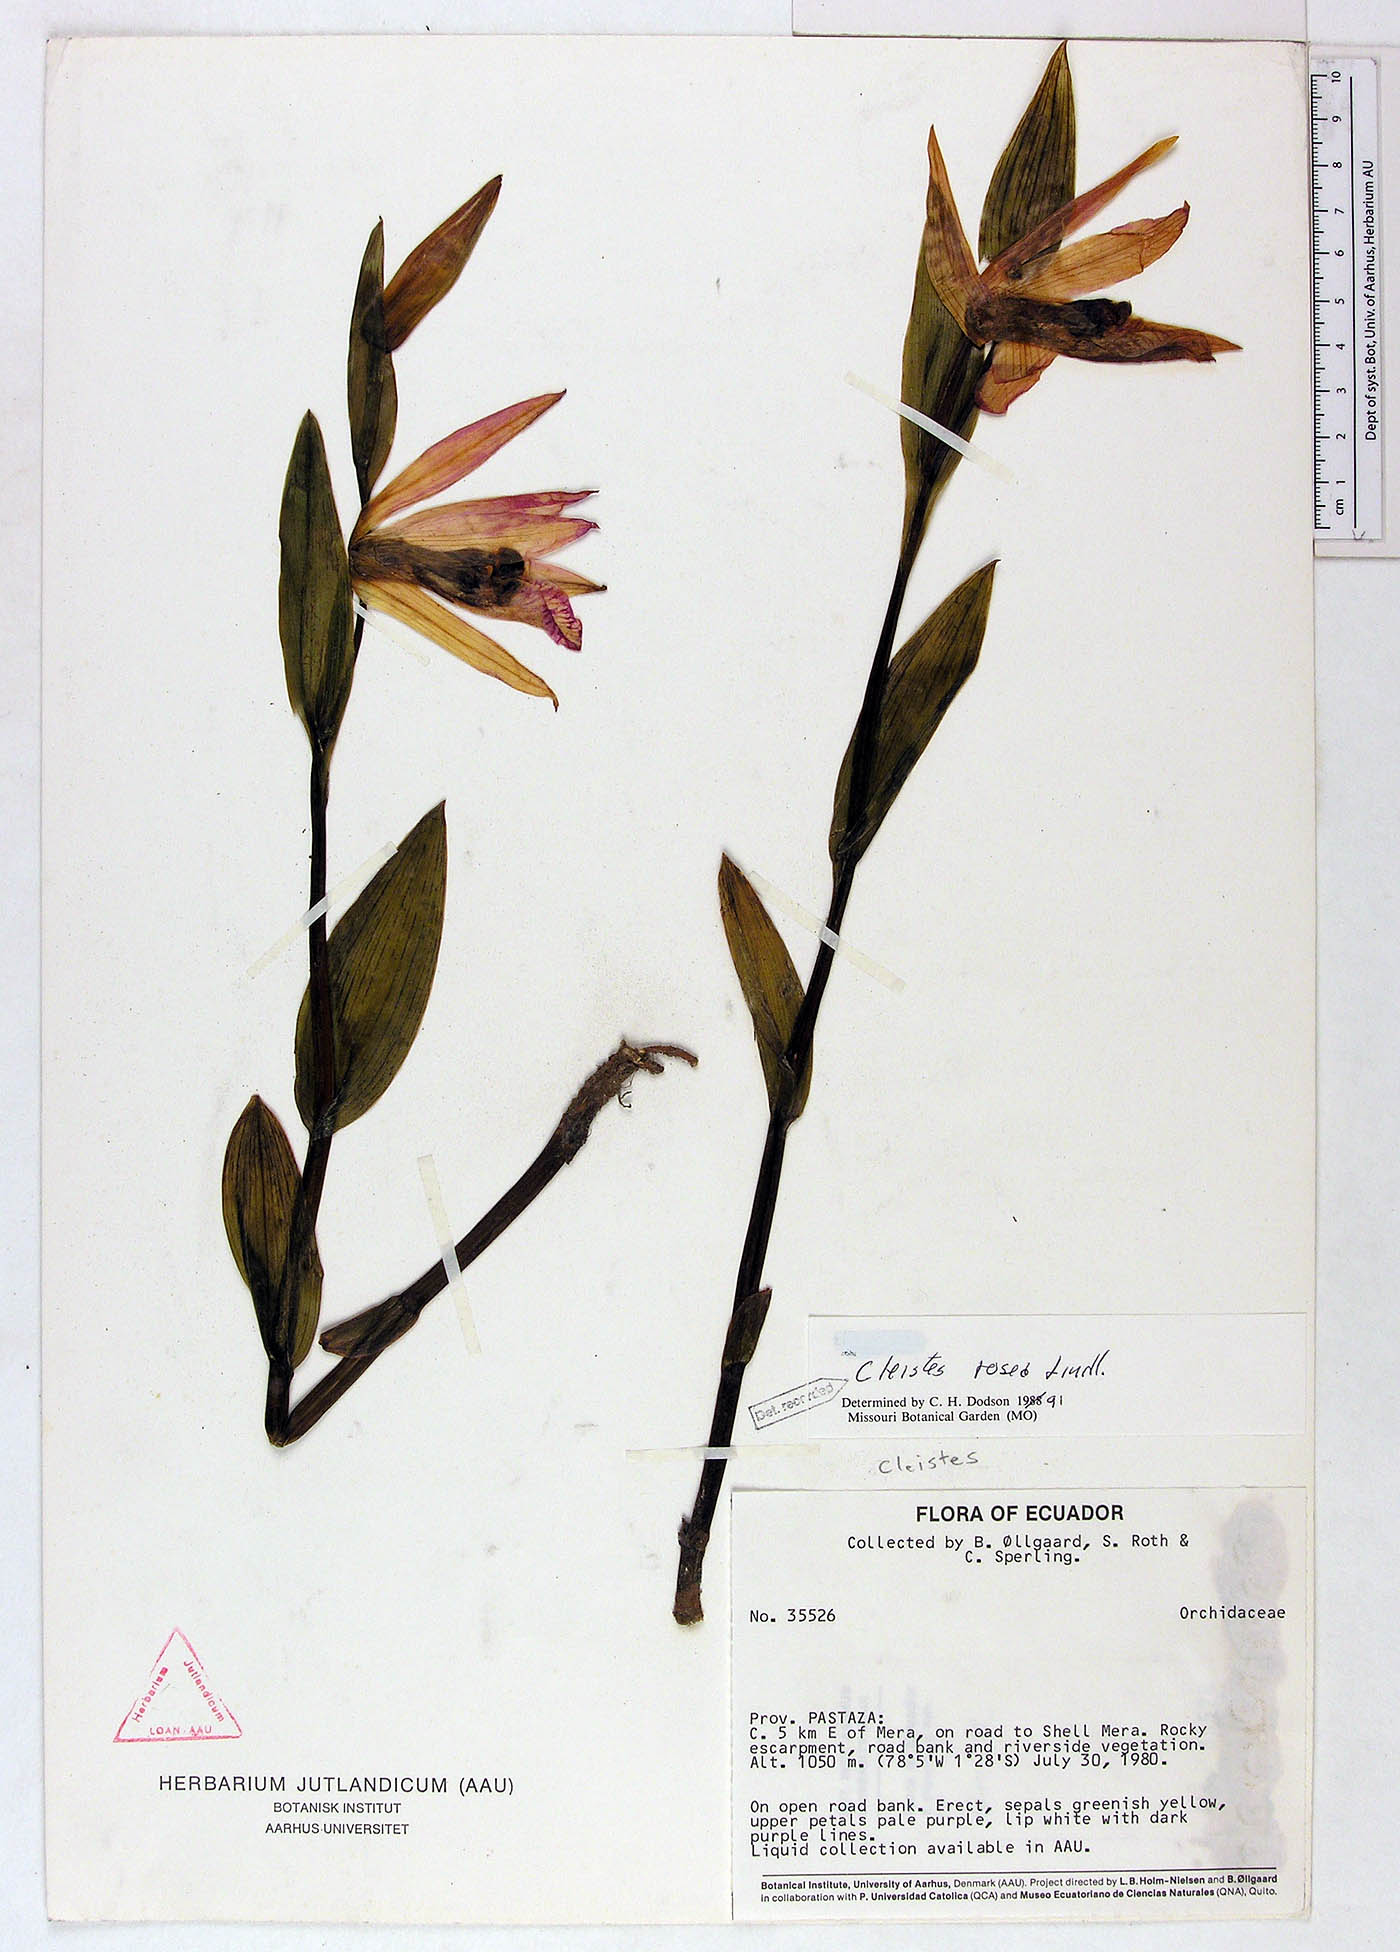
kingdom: Plantae
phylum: Tracheophyta
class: Liliopsida
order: Asparagales
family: Orchidaceae
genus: Cleistes
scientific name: Cleistes rosea
